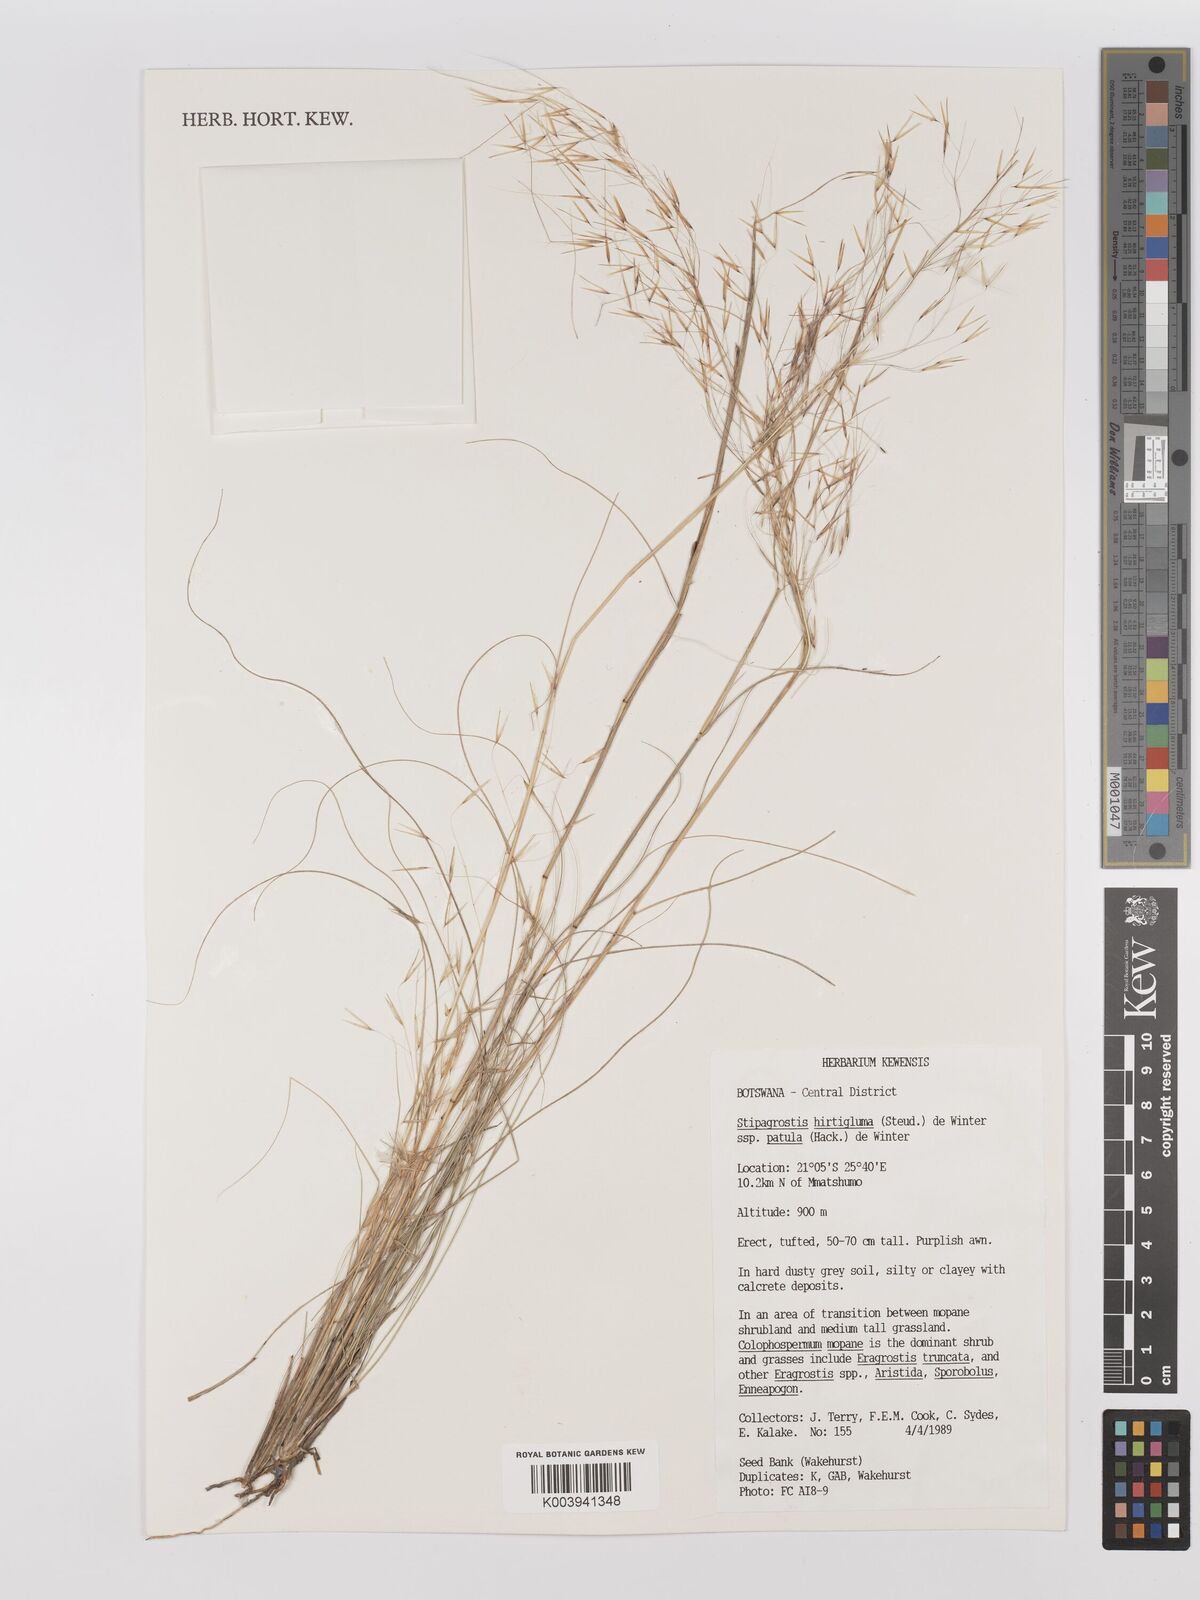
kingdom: Plantae
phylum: Tracheophyta
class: Liliopsida
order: Poales
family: Poaceae
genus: Stipagrostis
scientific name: Stipagrostis hirtigluma
